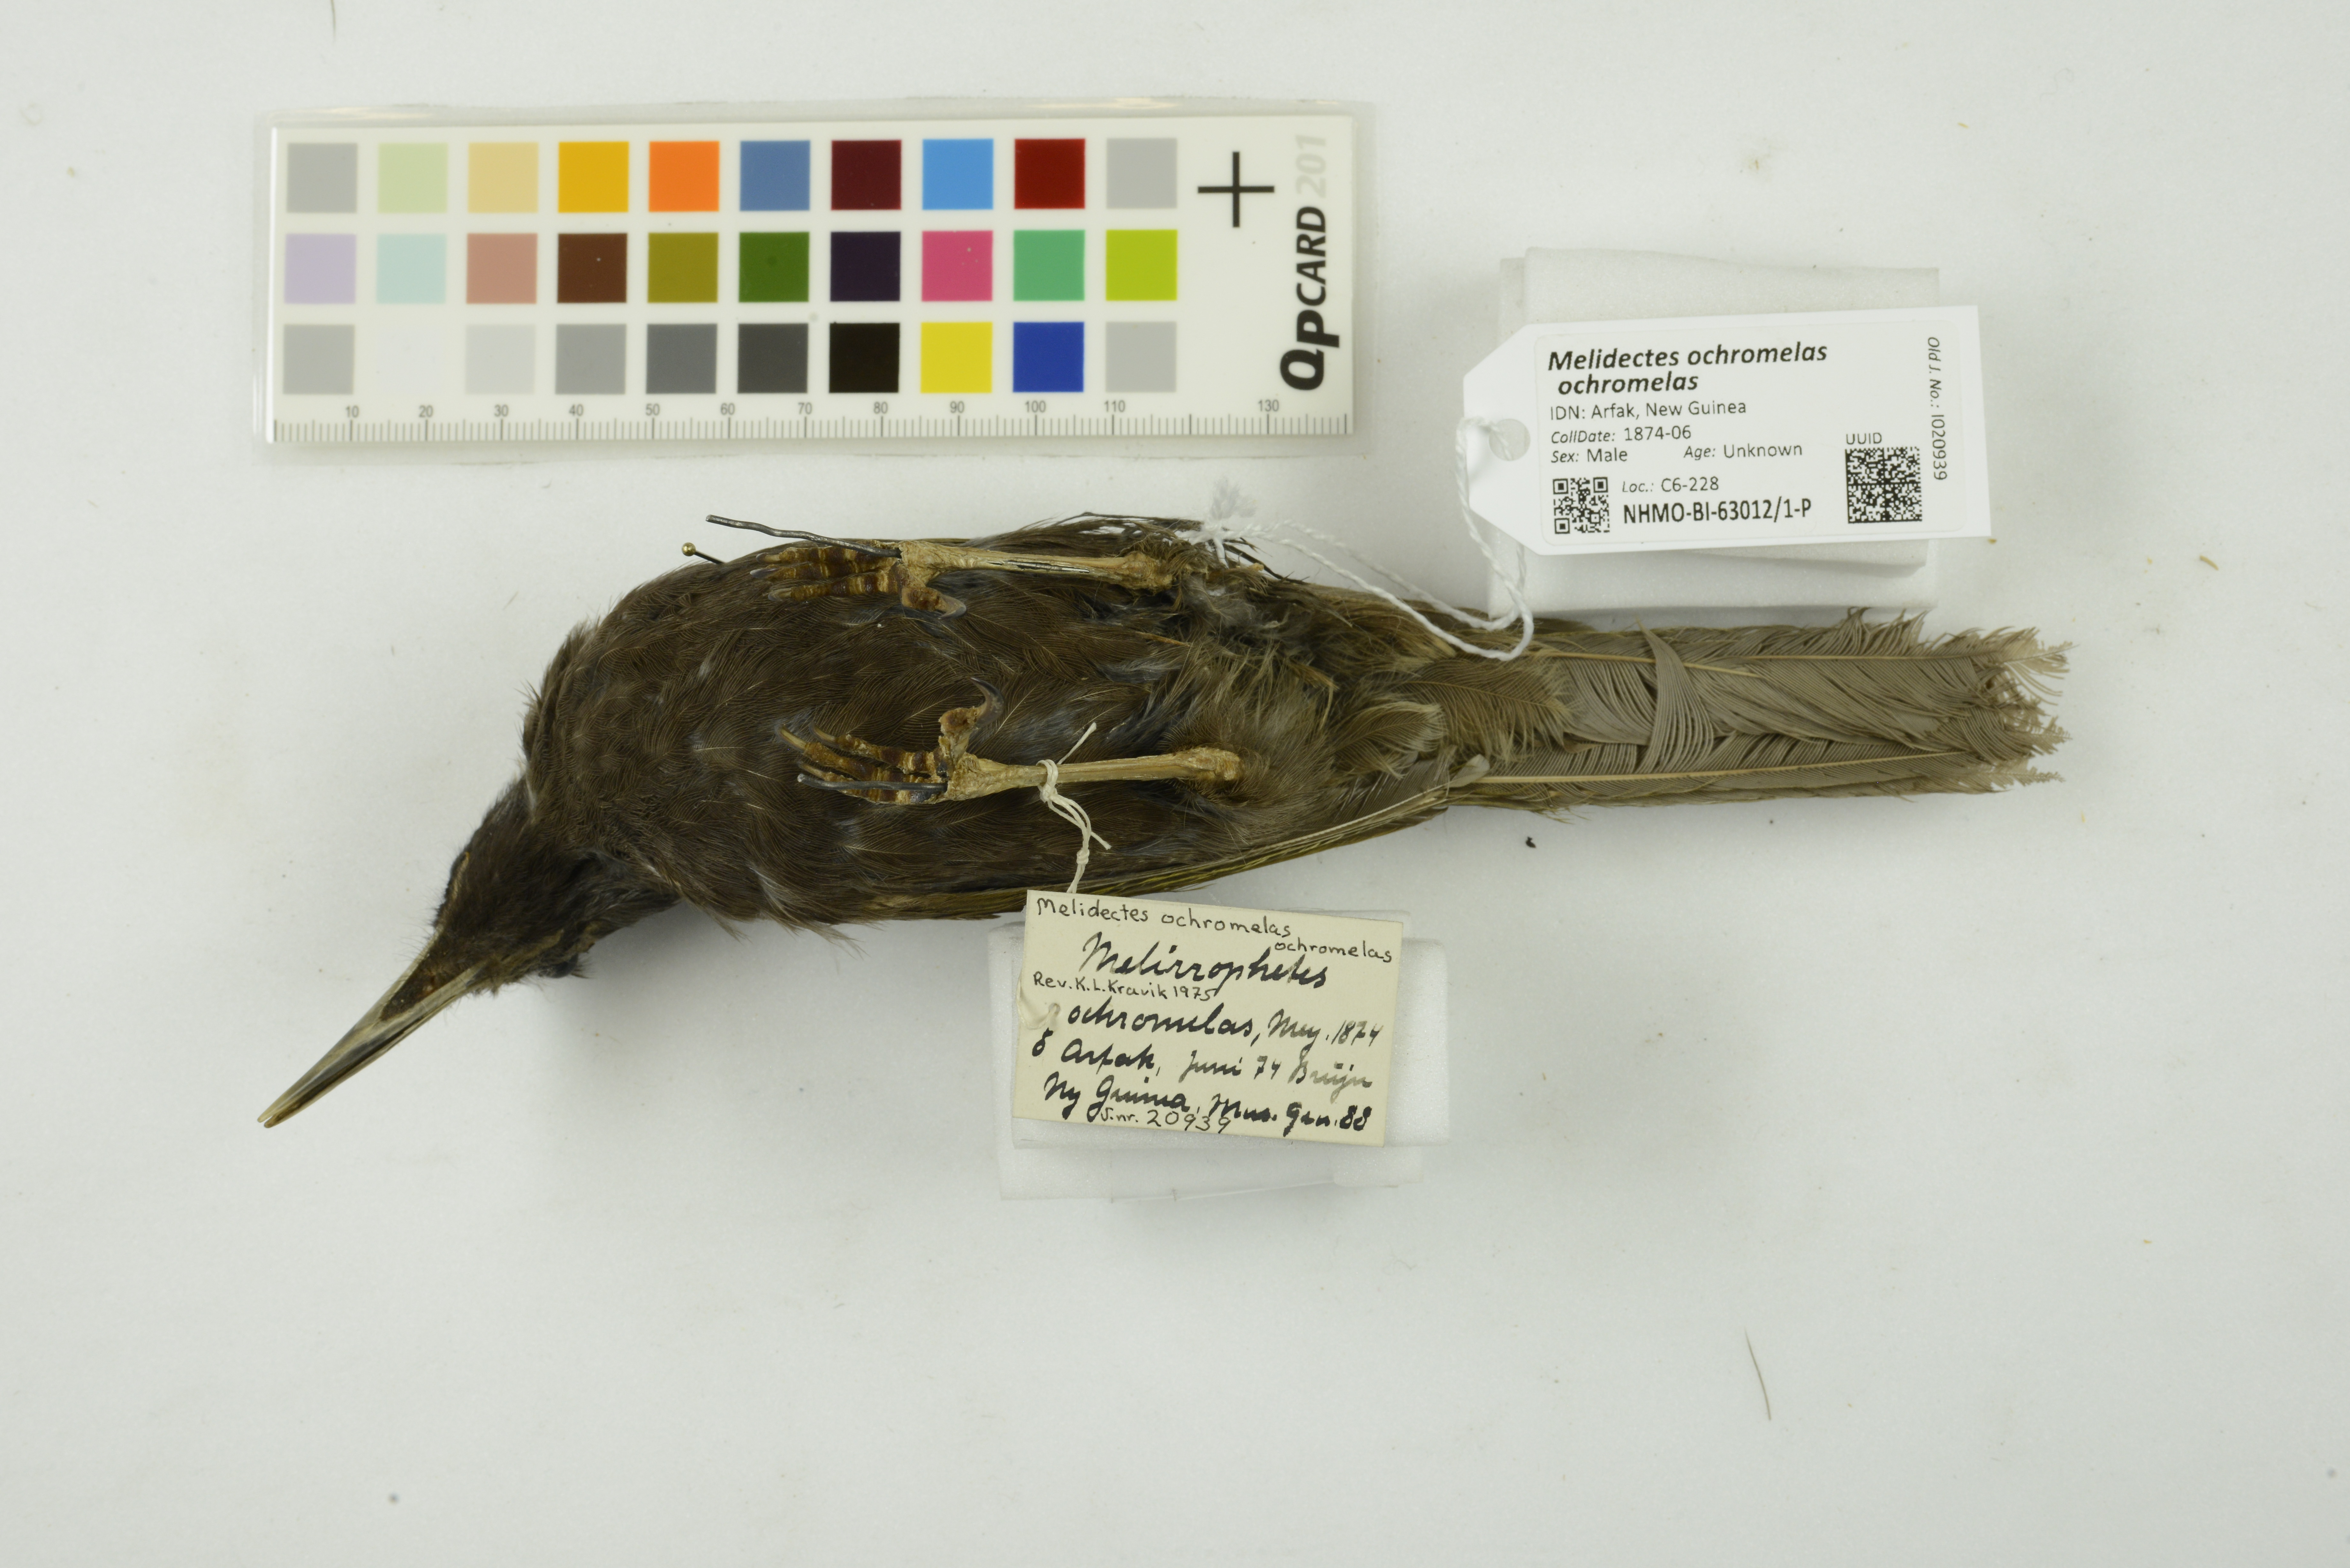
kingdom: Animalia
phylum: Chordata
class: Aves
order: Passeriformes
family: Meliphagidae
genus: Melidectes
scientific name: Melidectes ochromelas
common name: Cinnamon-browed melidectes
